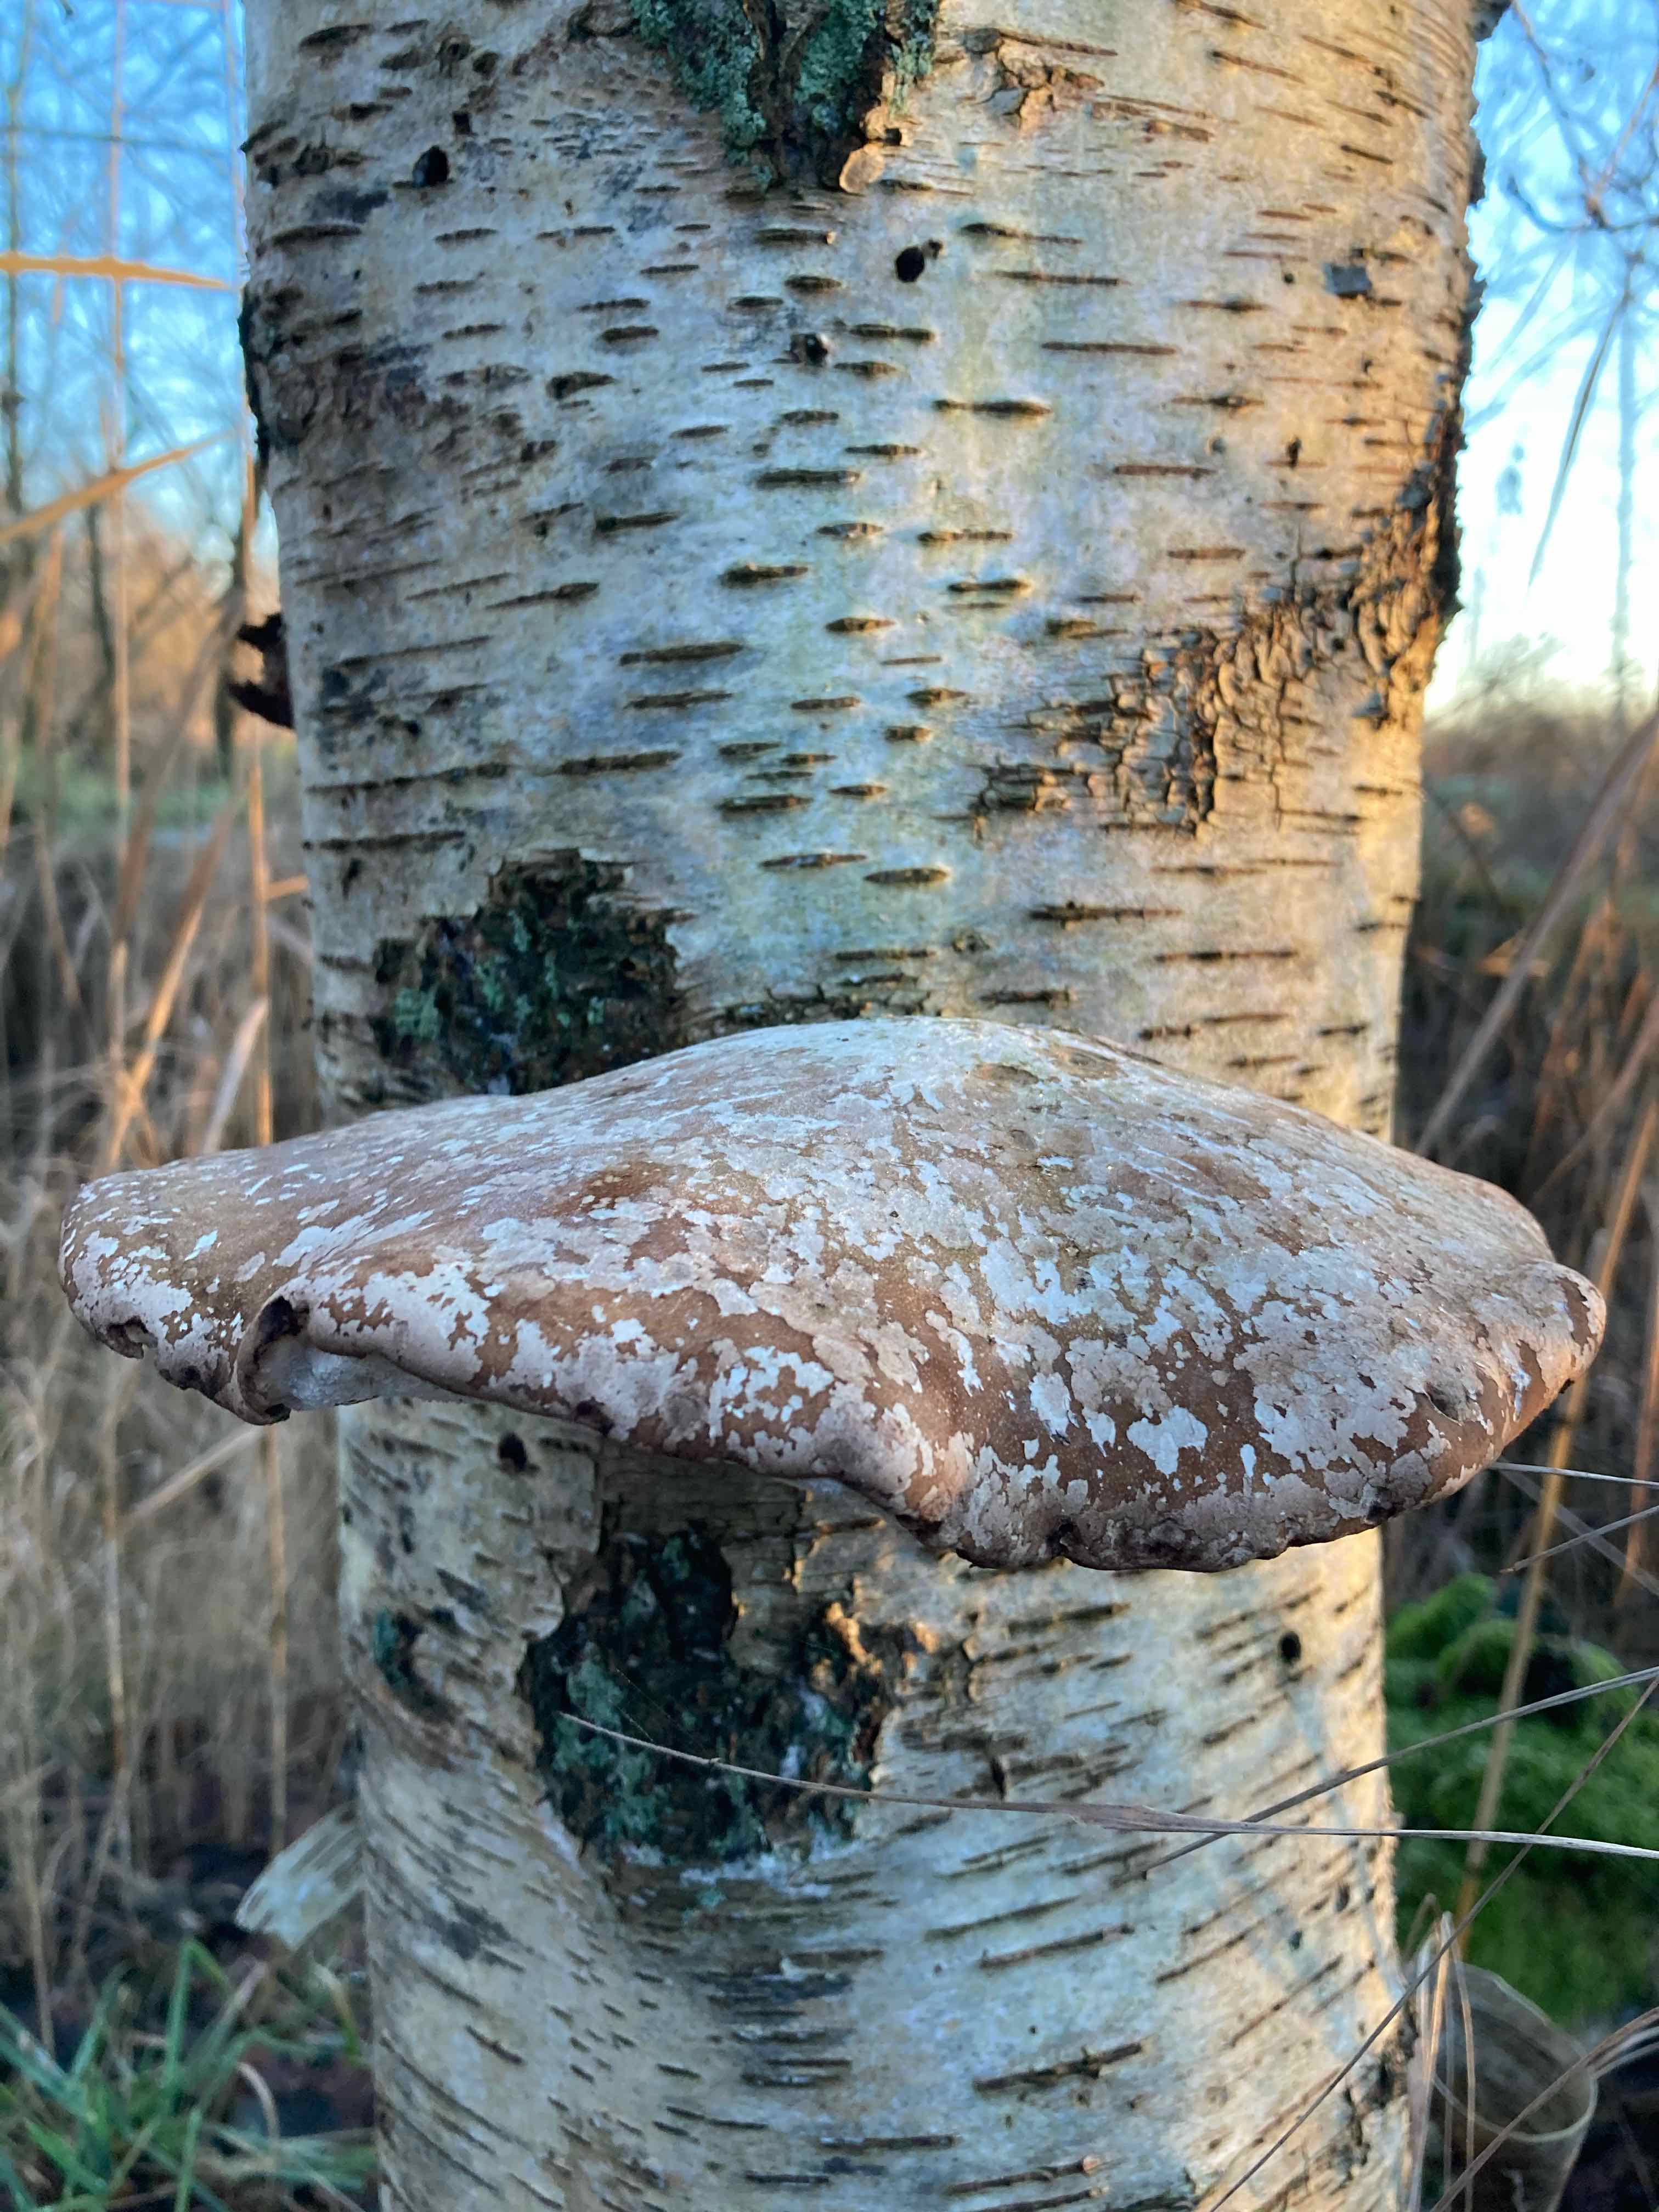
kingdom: Fungi
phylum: Basidiomycota
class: Agaricomycetes
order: Polyporales
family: Fomitopsidaceae
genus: Fomitopsis
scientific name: Fomitopsis betulina
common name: birkeporesvamp
